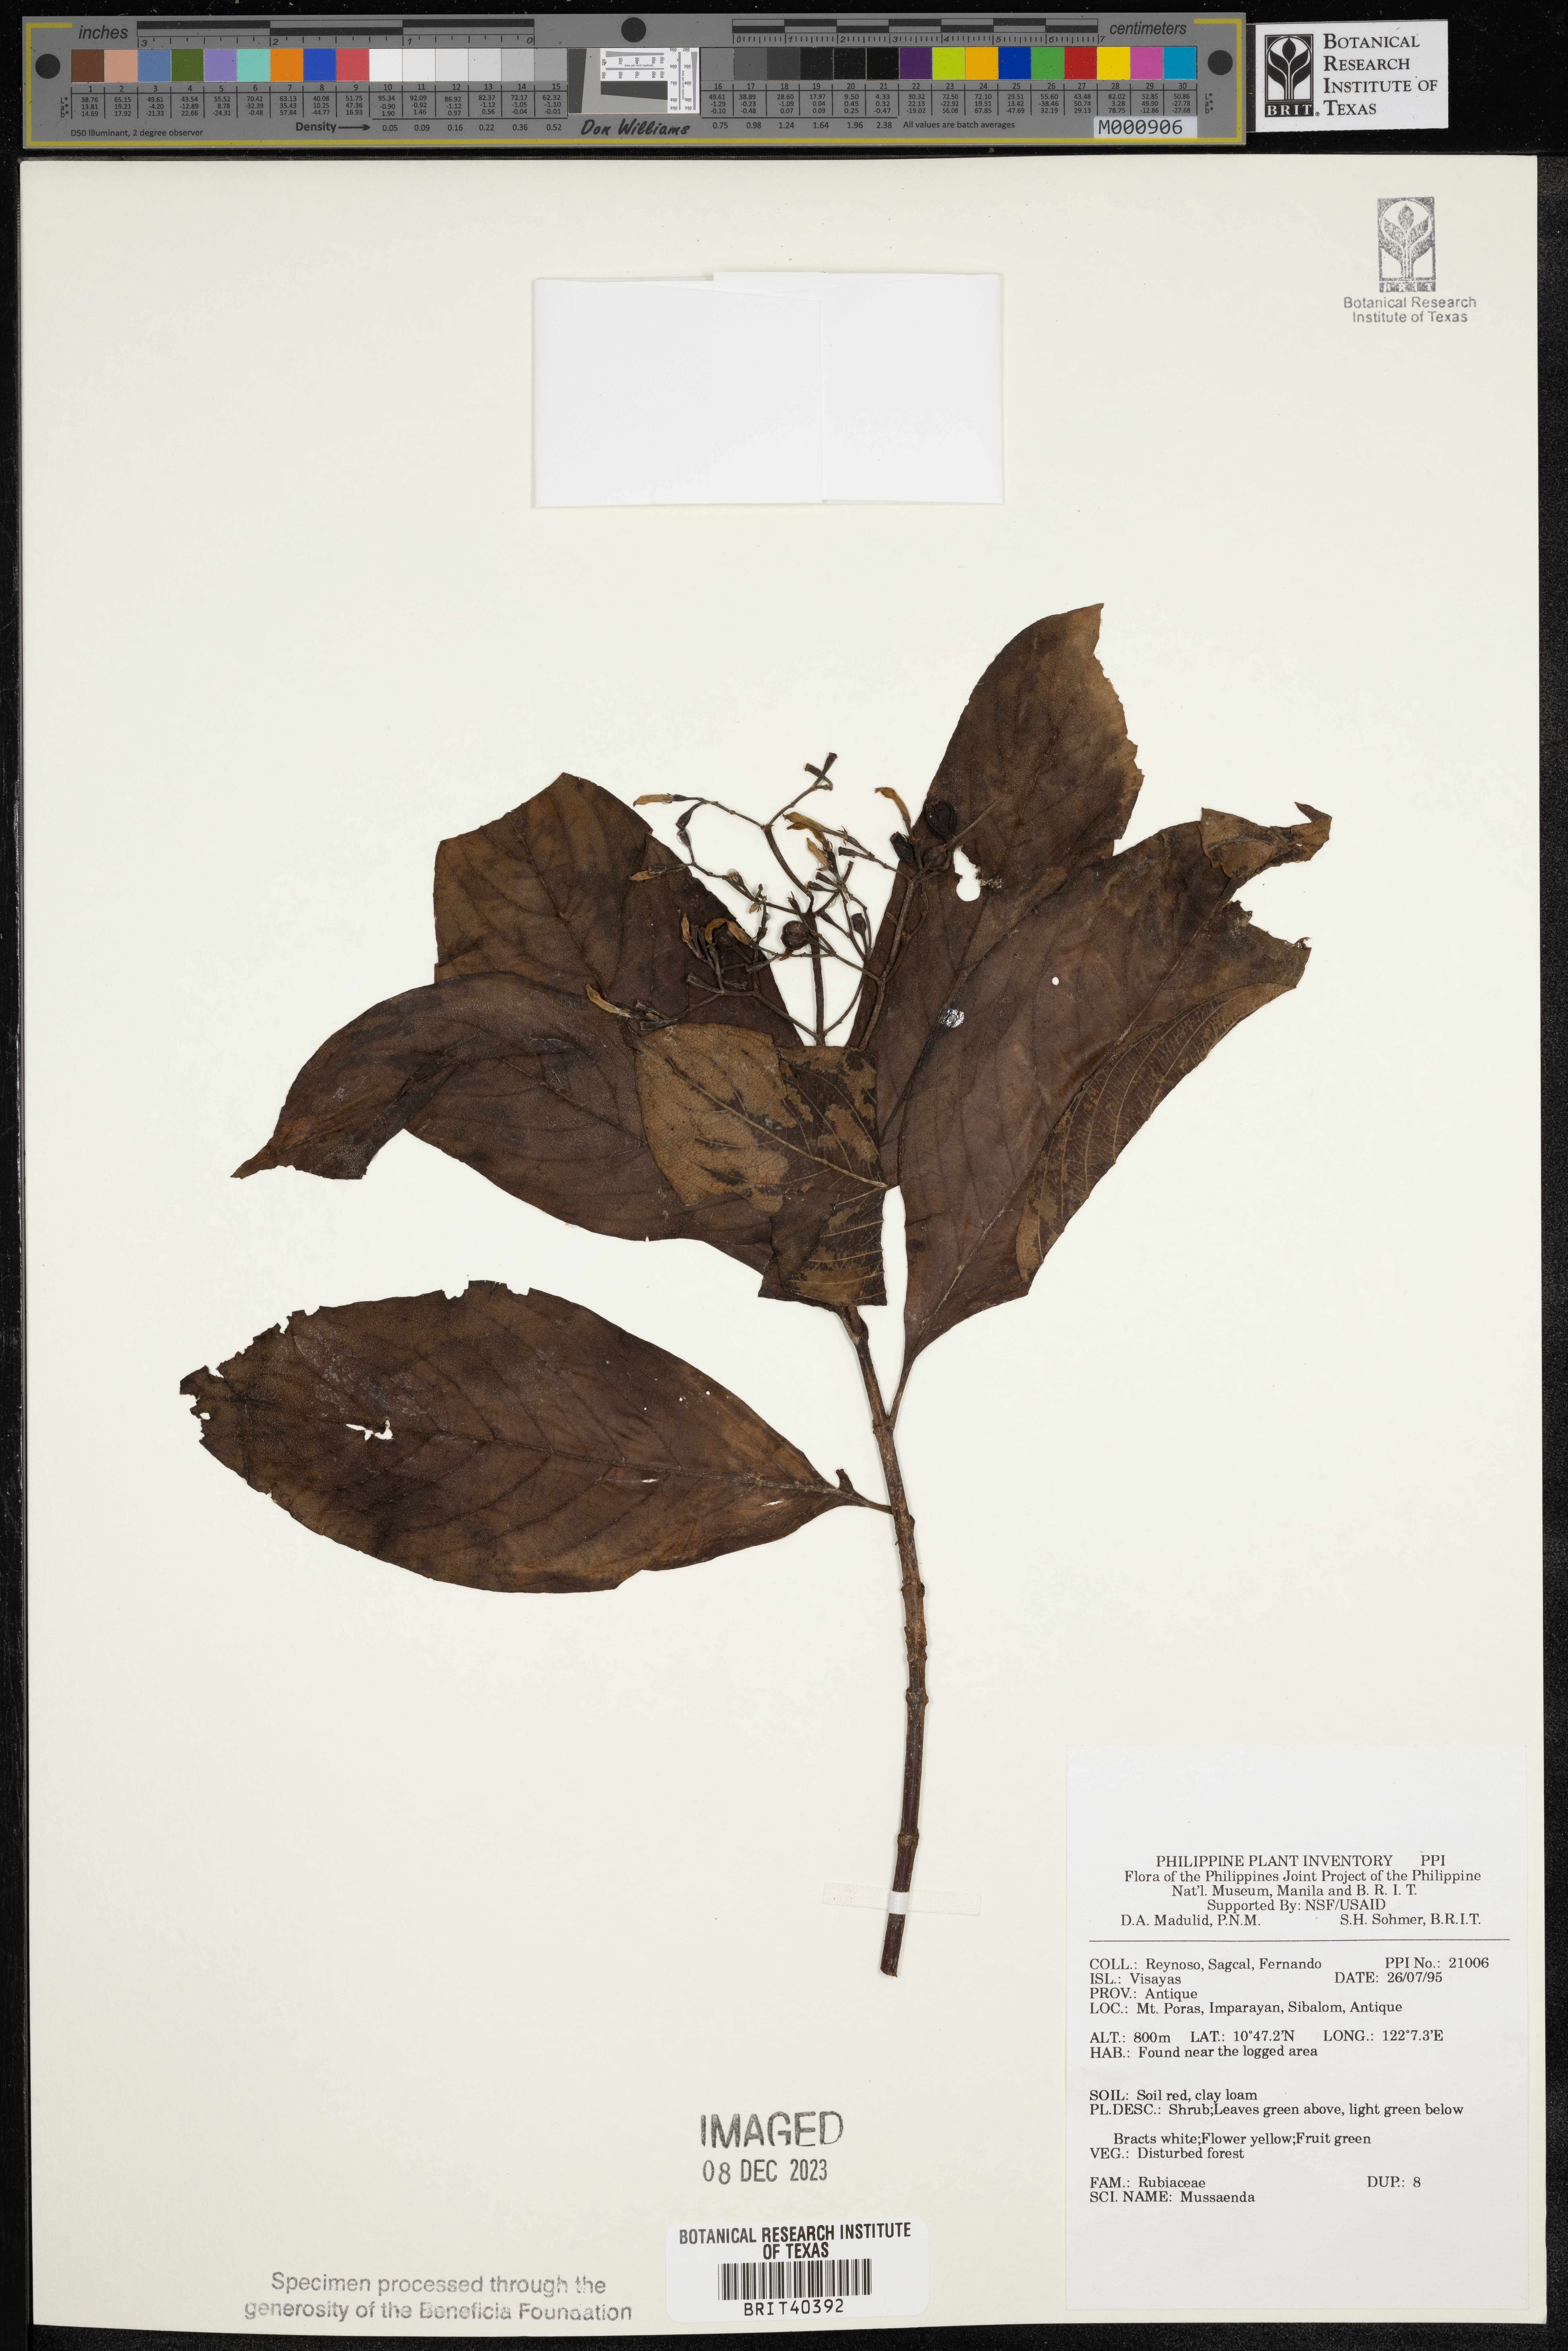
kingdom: Plantae
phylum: Tracheophyta
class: Magnoliopsida
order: Gentianales
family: Rubiaceae
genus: Mussaenda
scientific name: Mussaenda
